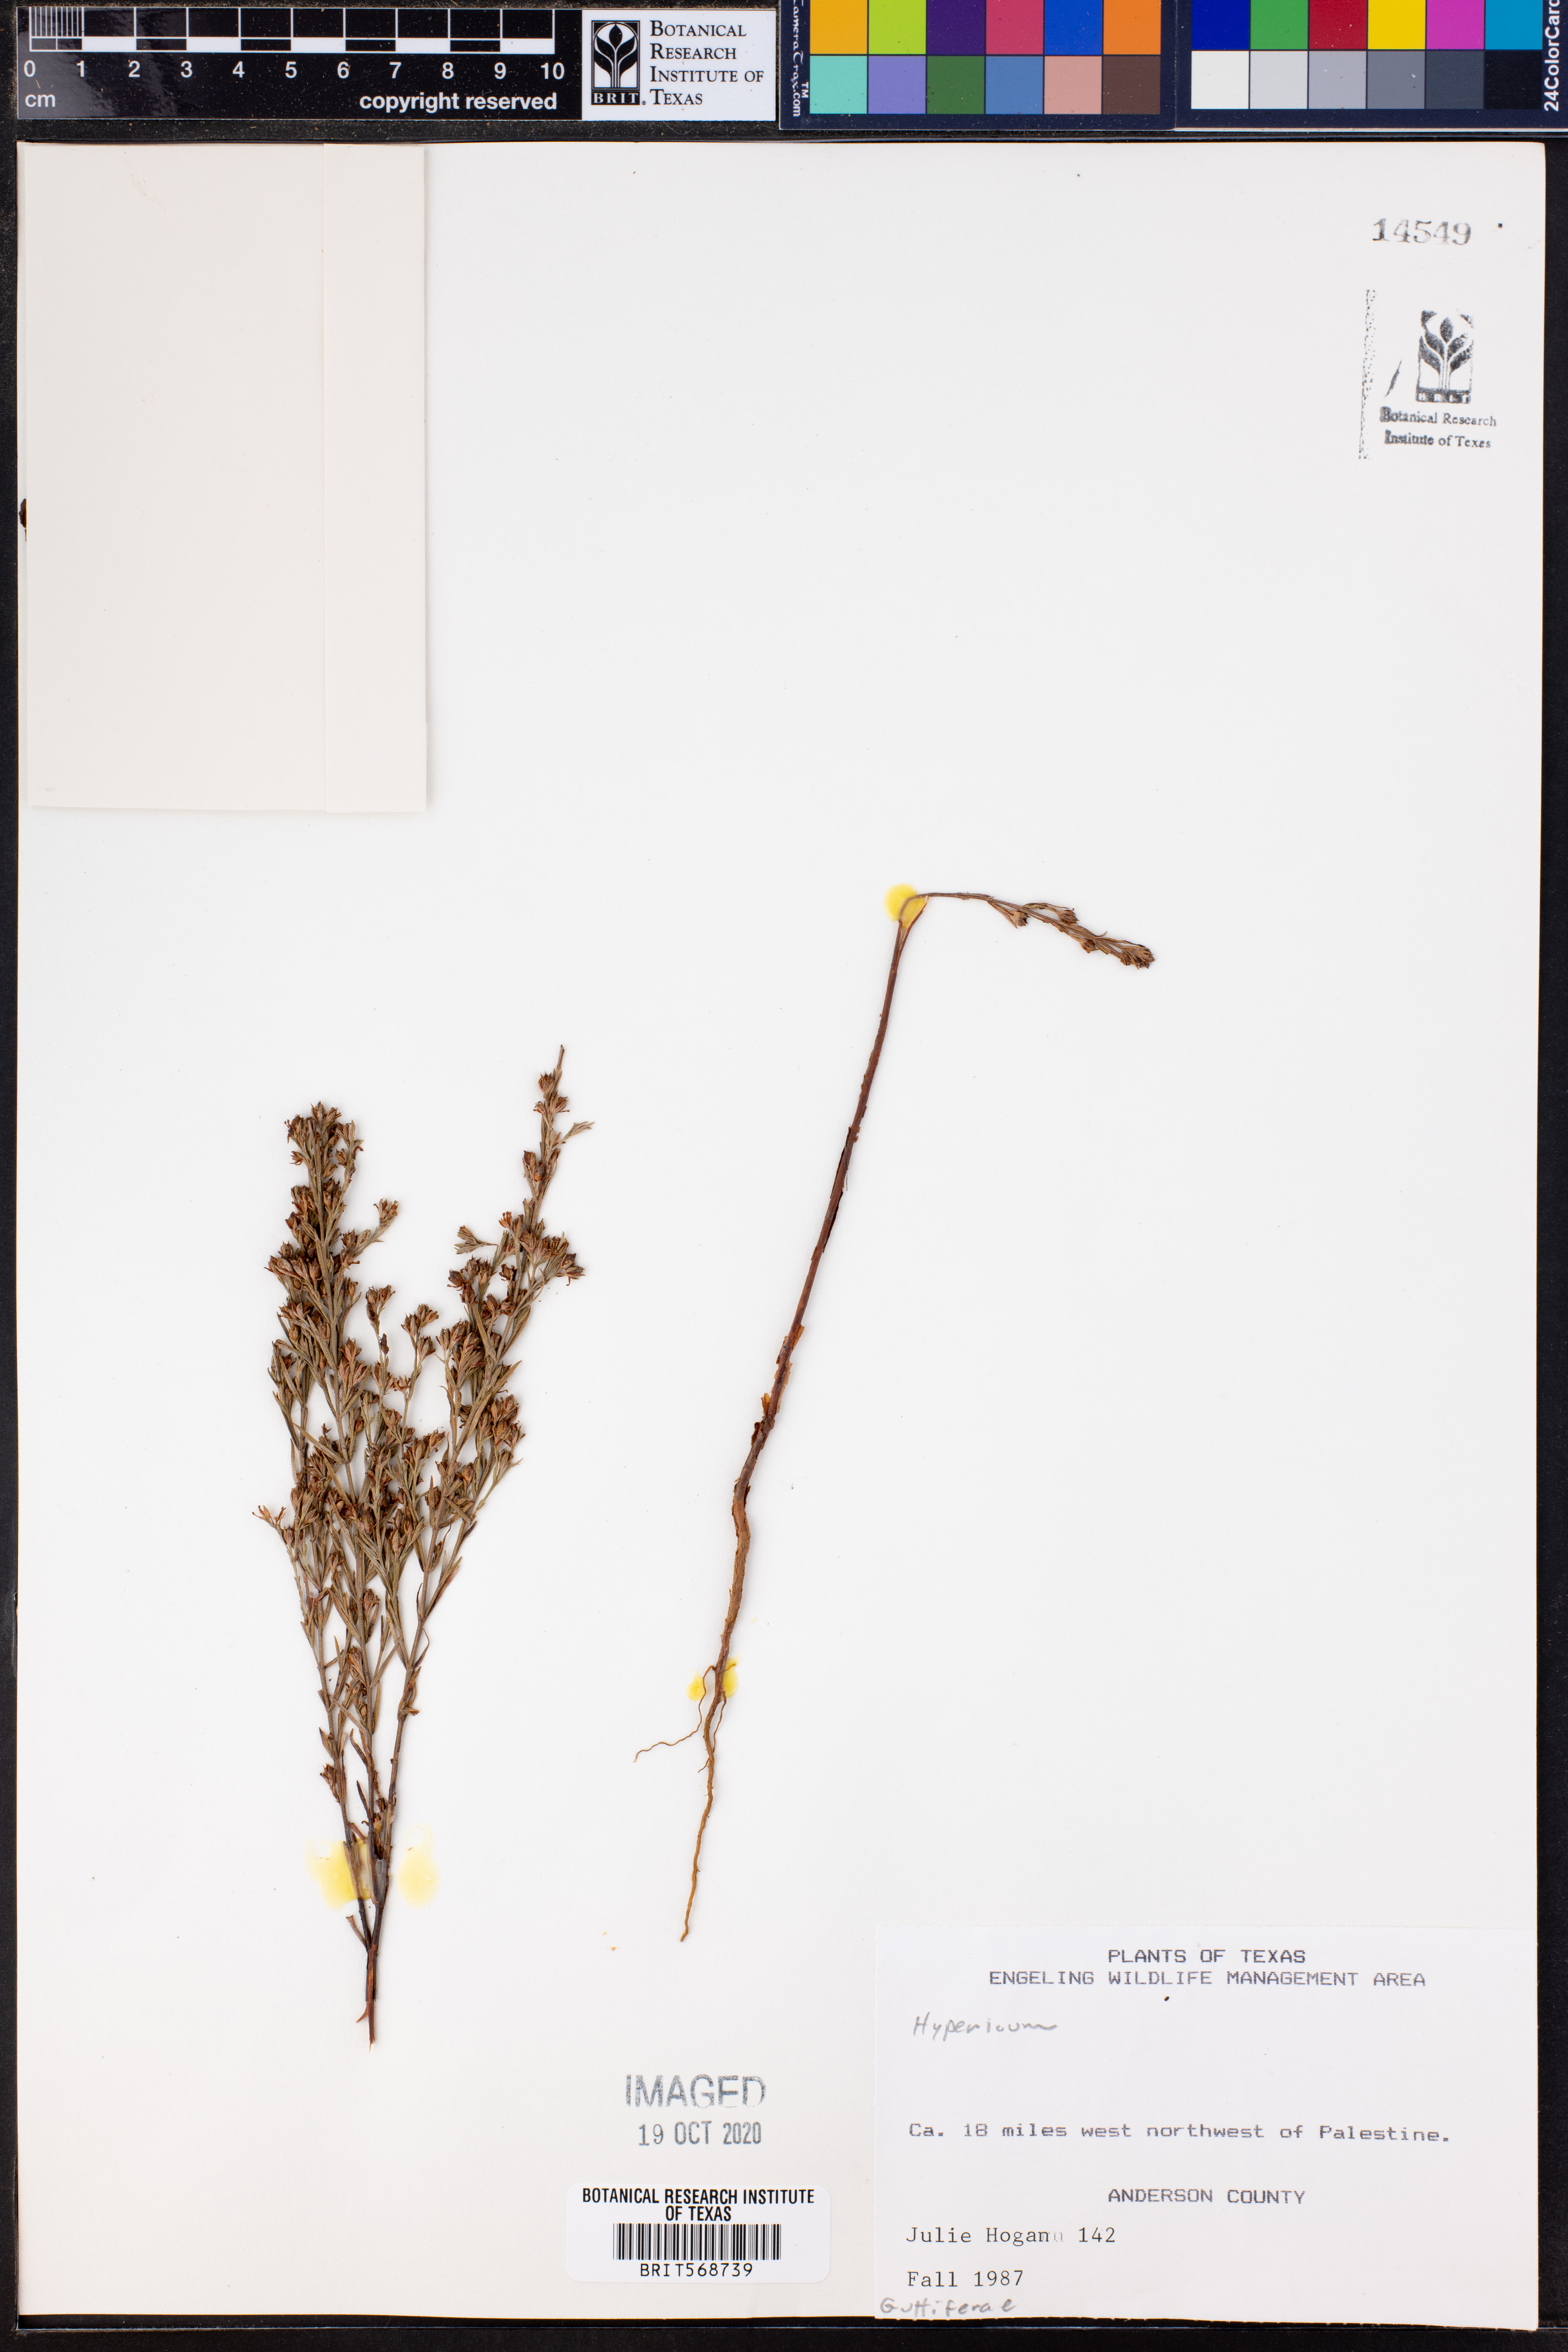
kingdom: Plantae
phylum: Tracheophyta
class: Magnoliopsida
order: Malpighiales
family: Hypericaceae
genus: Hypericum
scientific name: Hypericum
